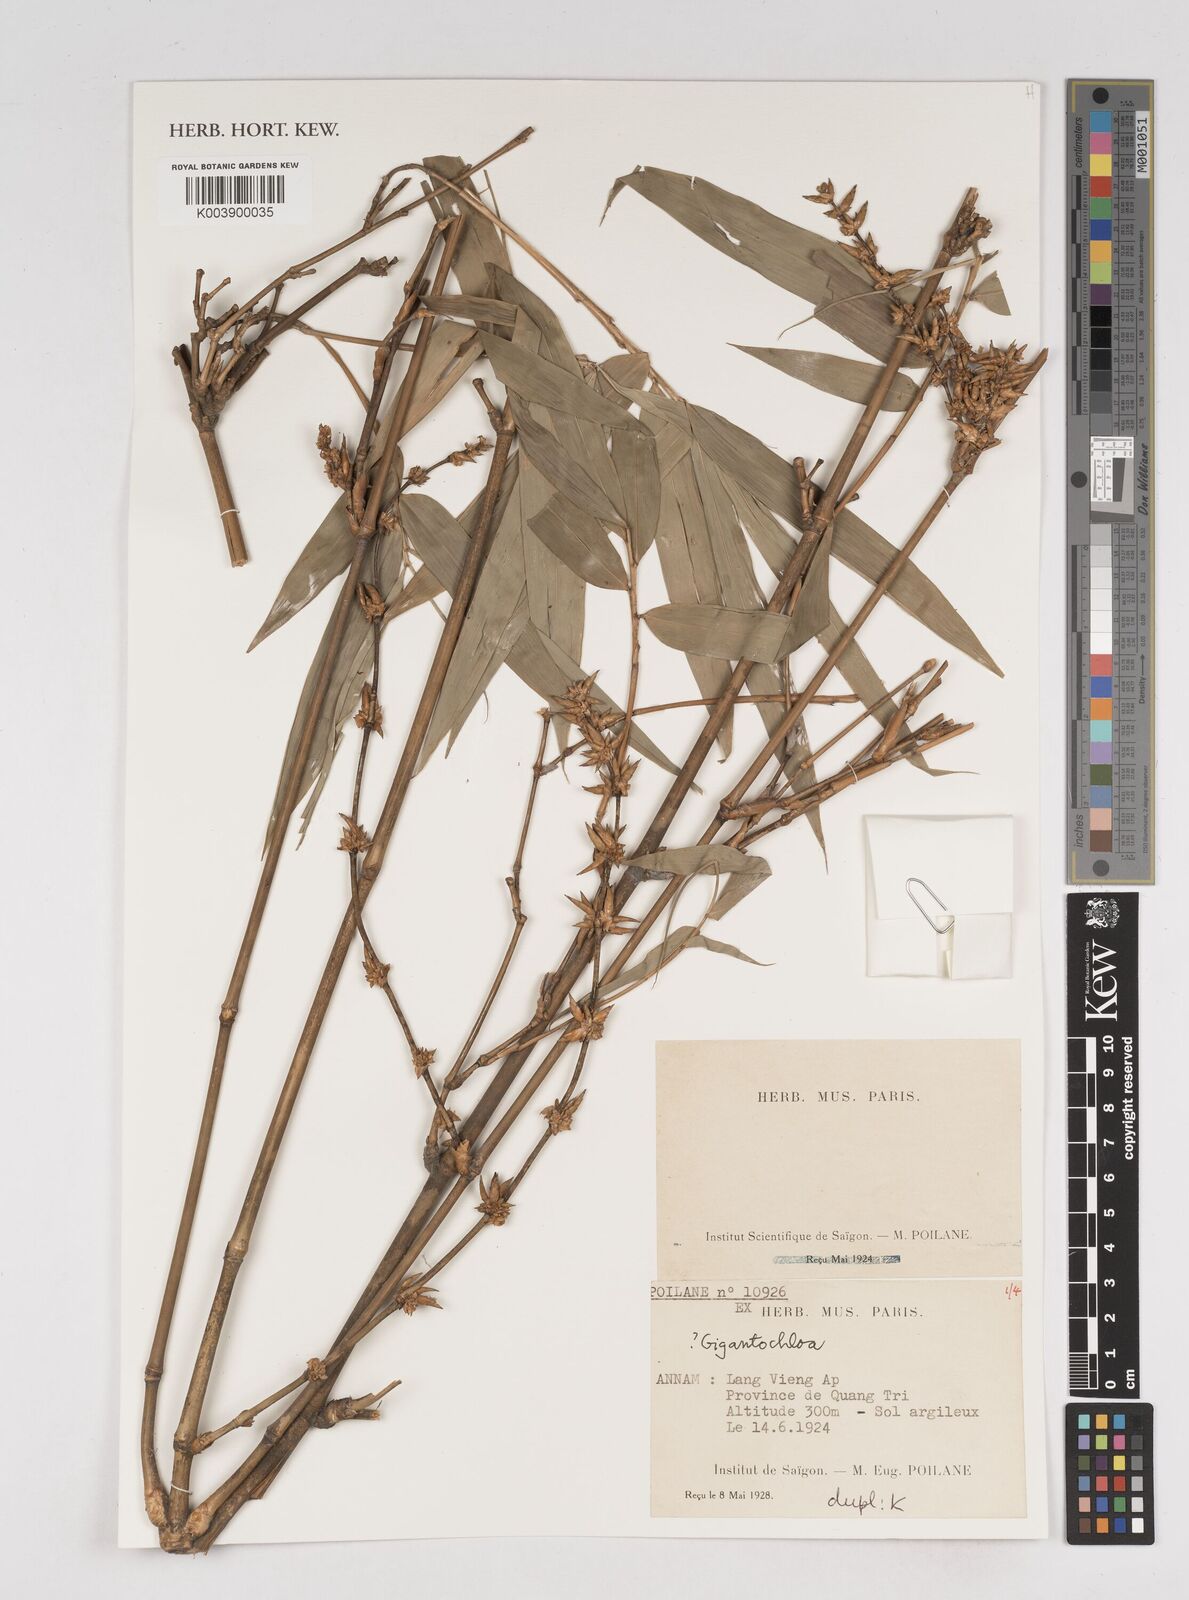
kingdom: Plantae
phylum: Tracheophyta
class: Liliopsida
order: Poales
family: Poaceae
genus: Gigantochloa
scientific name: Gigantochloa
